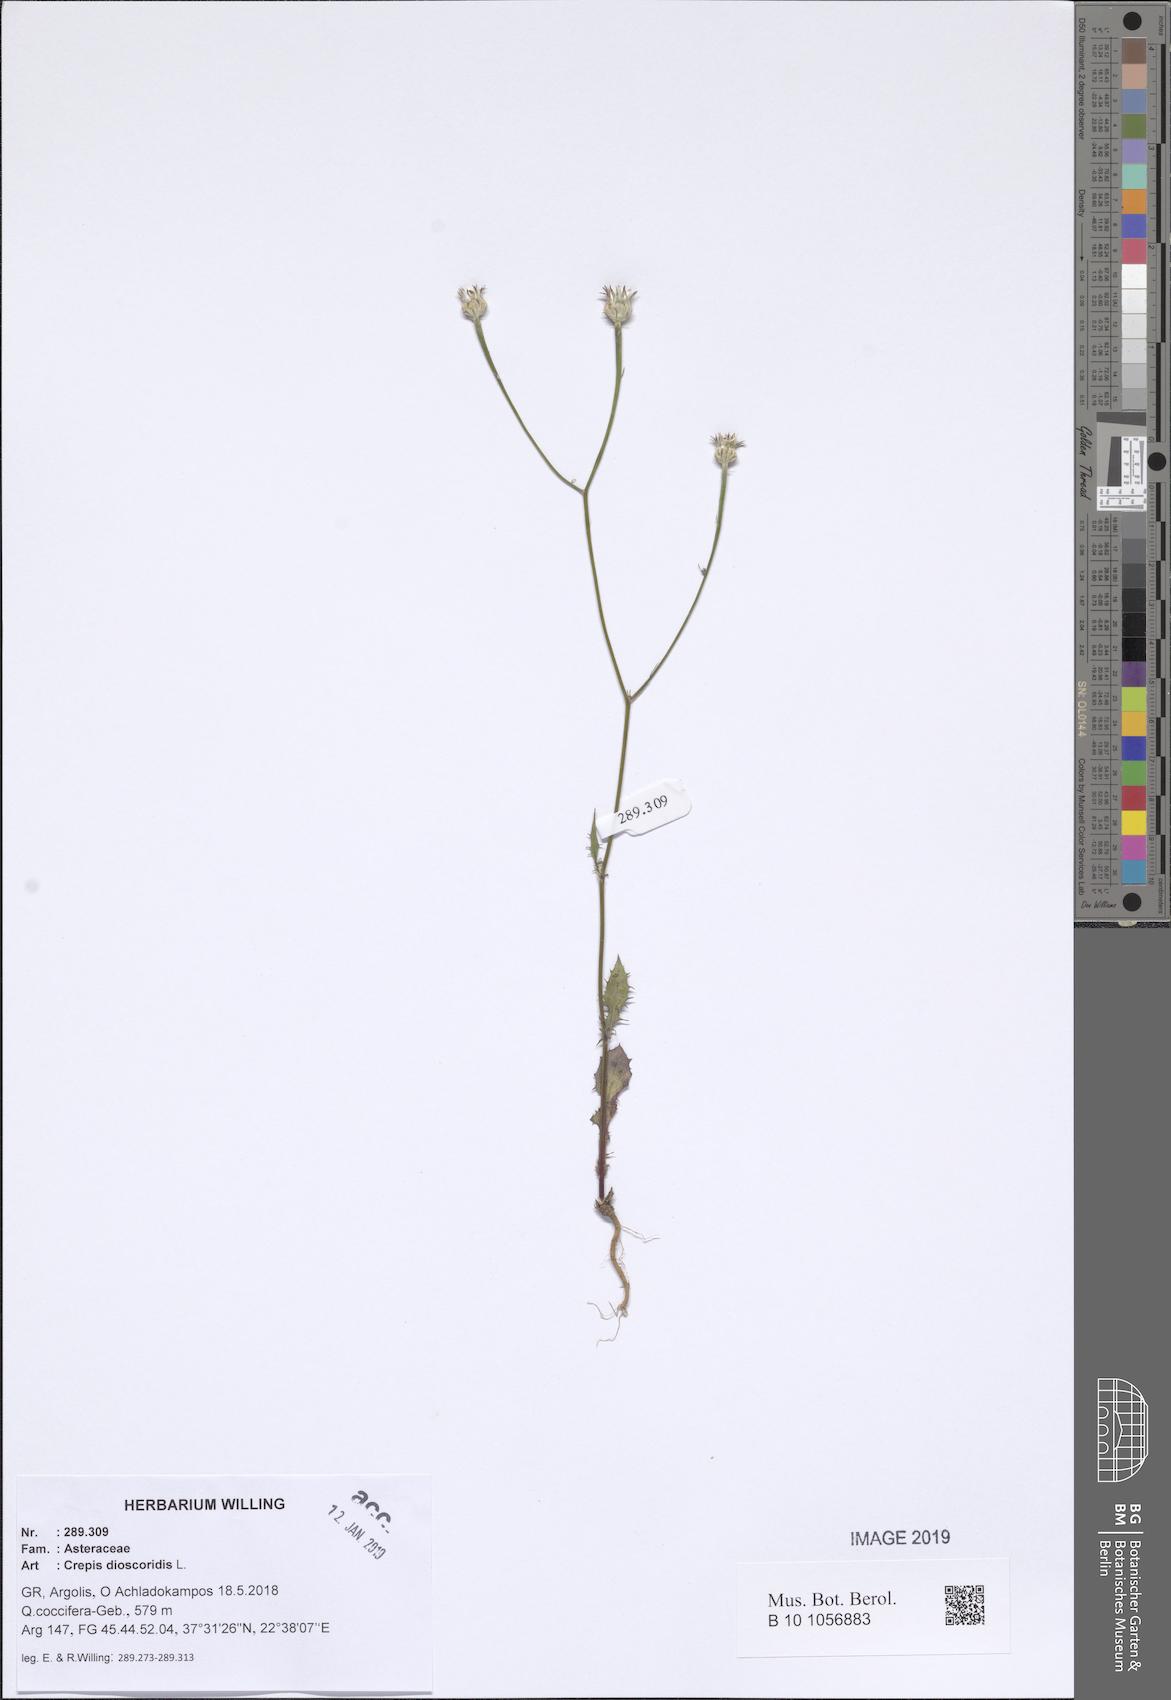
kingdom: Plantae
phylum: Tracheophyta
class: Magnoliopsida
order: Asterales
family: Asteraceae
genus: Crepis
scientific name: Crepis dioscoridis
